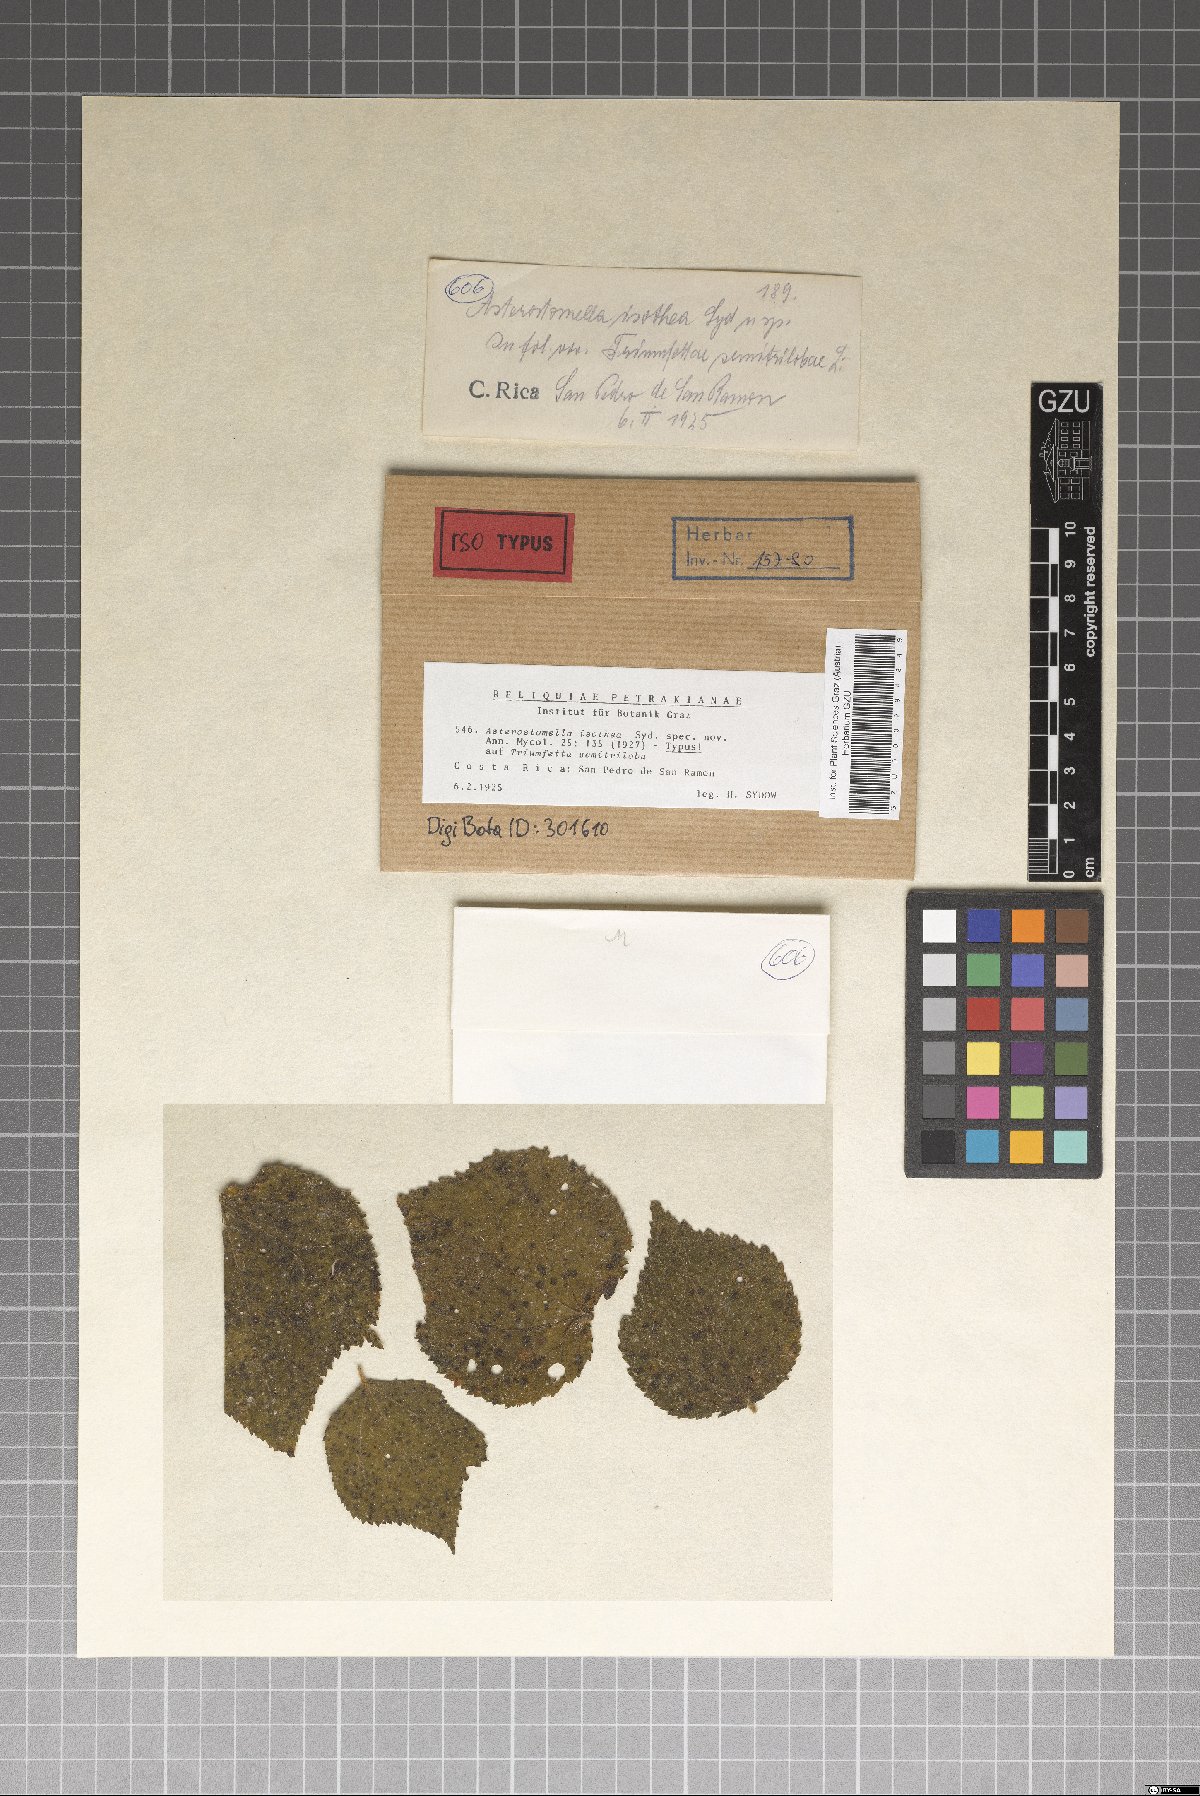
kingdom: Fungi
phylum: Ascomycota
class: Dothideomycetes
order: Asterinales
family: Asterinaceae
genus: Asterostomella
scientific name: Asterostomella isothea
